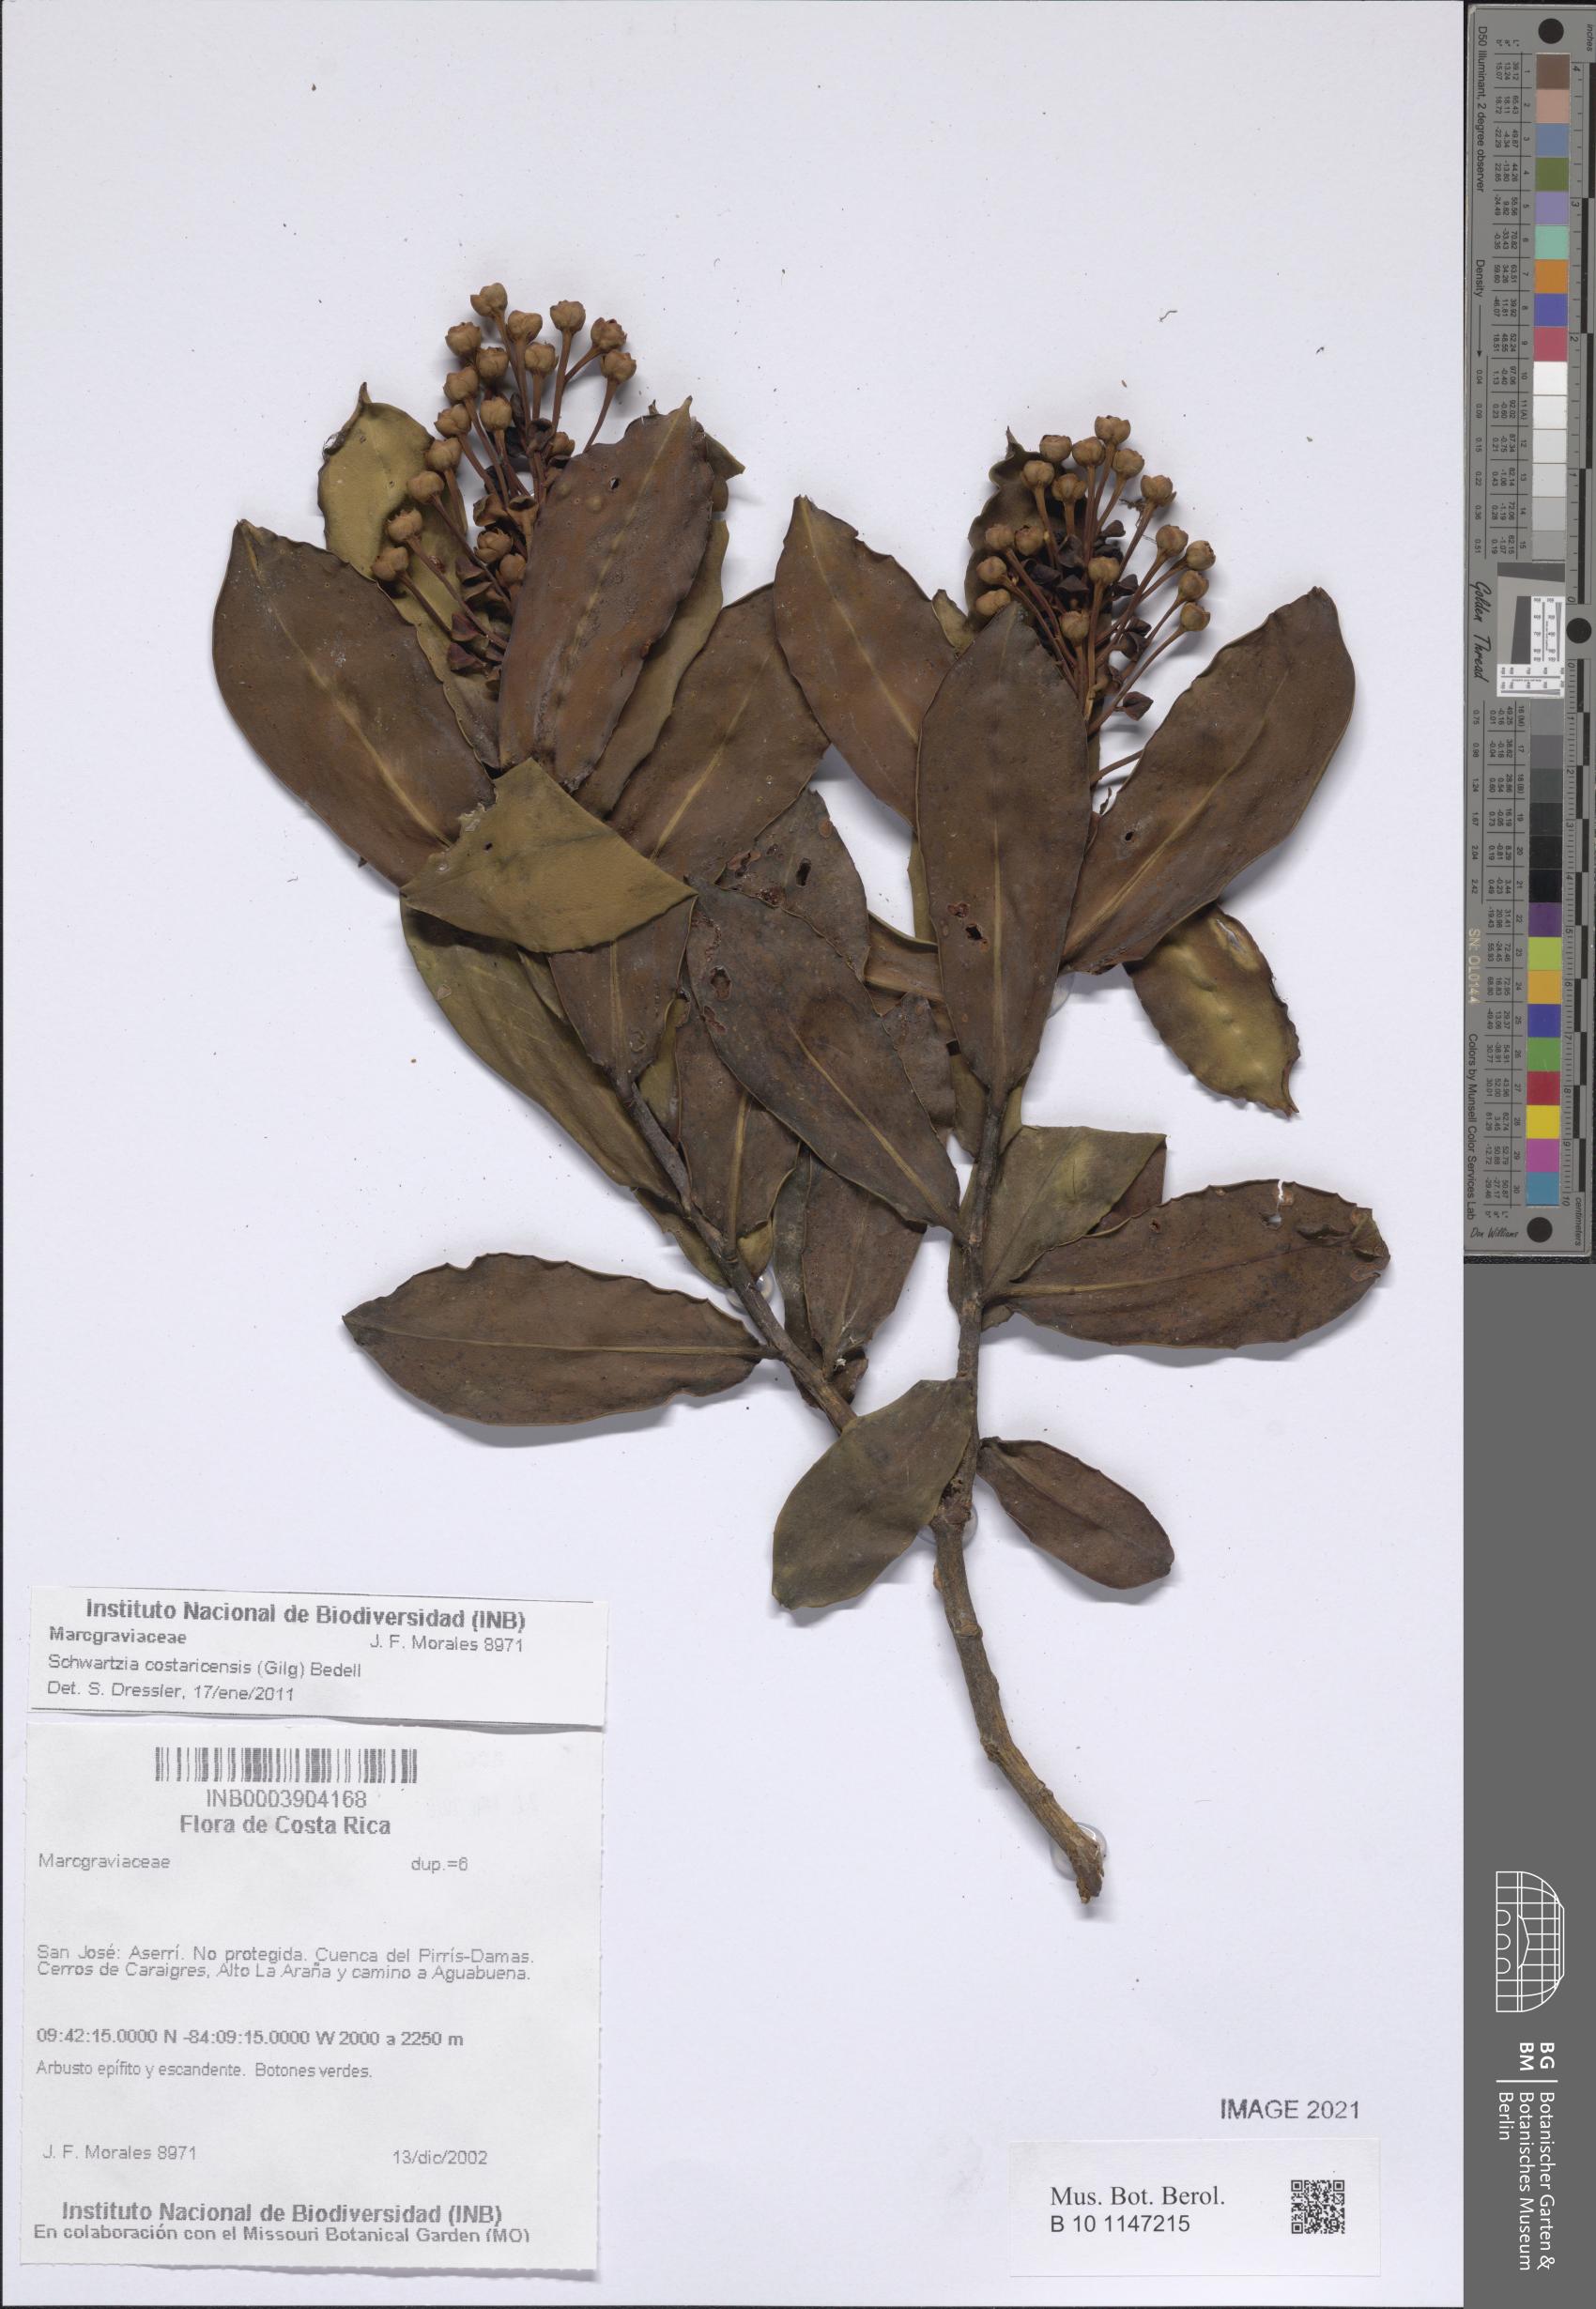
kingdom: Plantae
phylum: Tracheophyta
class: Magnoliopsida
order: Ericales
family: Marcgraviaceae
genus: Schwartzia
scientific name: Schwartzia costaricensis
